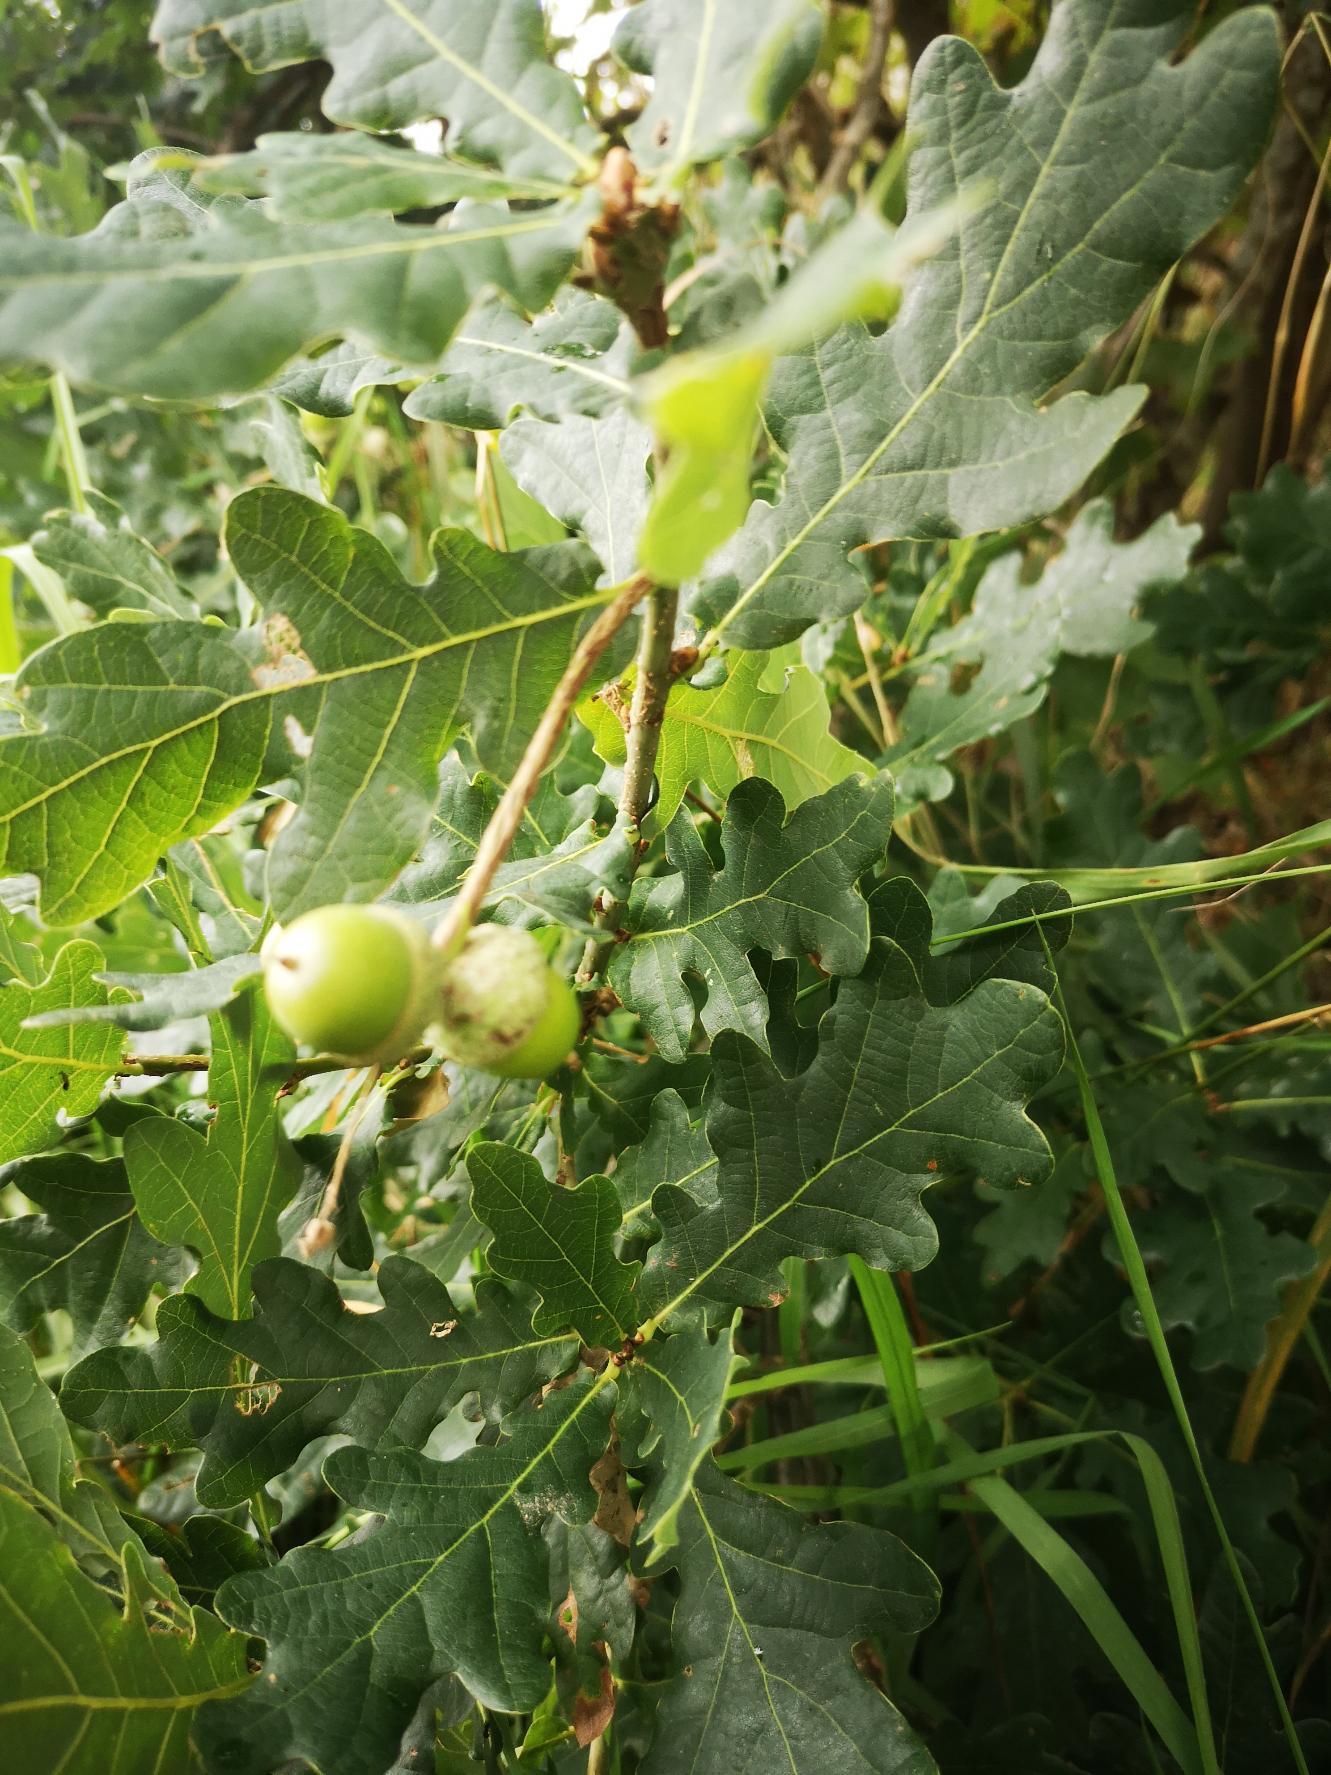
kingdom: Plantae
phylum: Tracheophyta
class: Magnoliopsida
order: Fagales
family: Fagaceae
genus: Quercus
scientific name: Quercus robur
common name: Stilk-eg/almindelig eg
